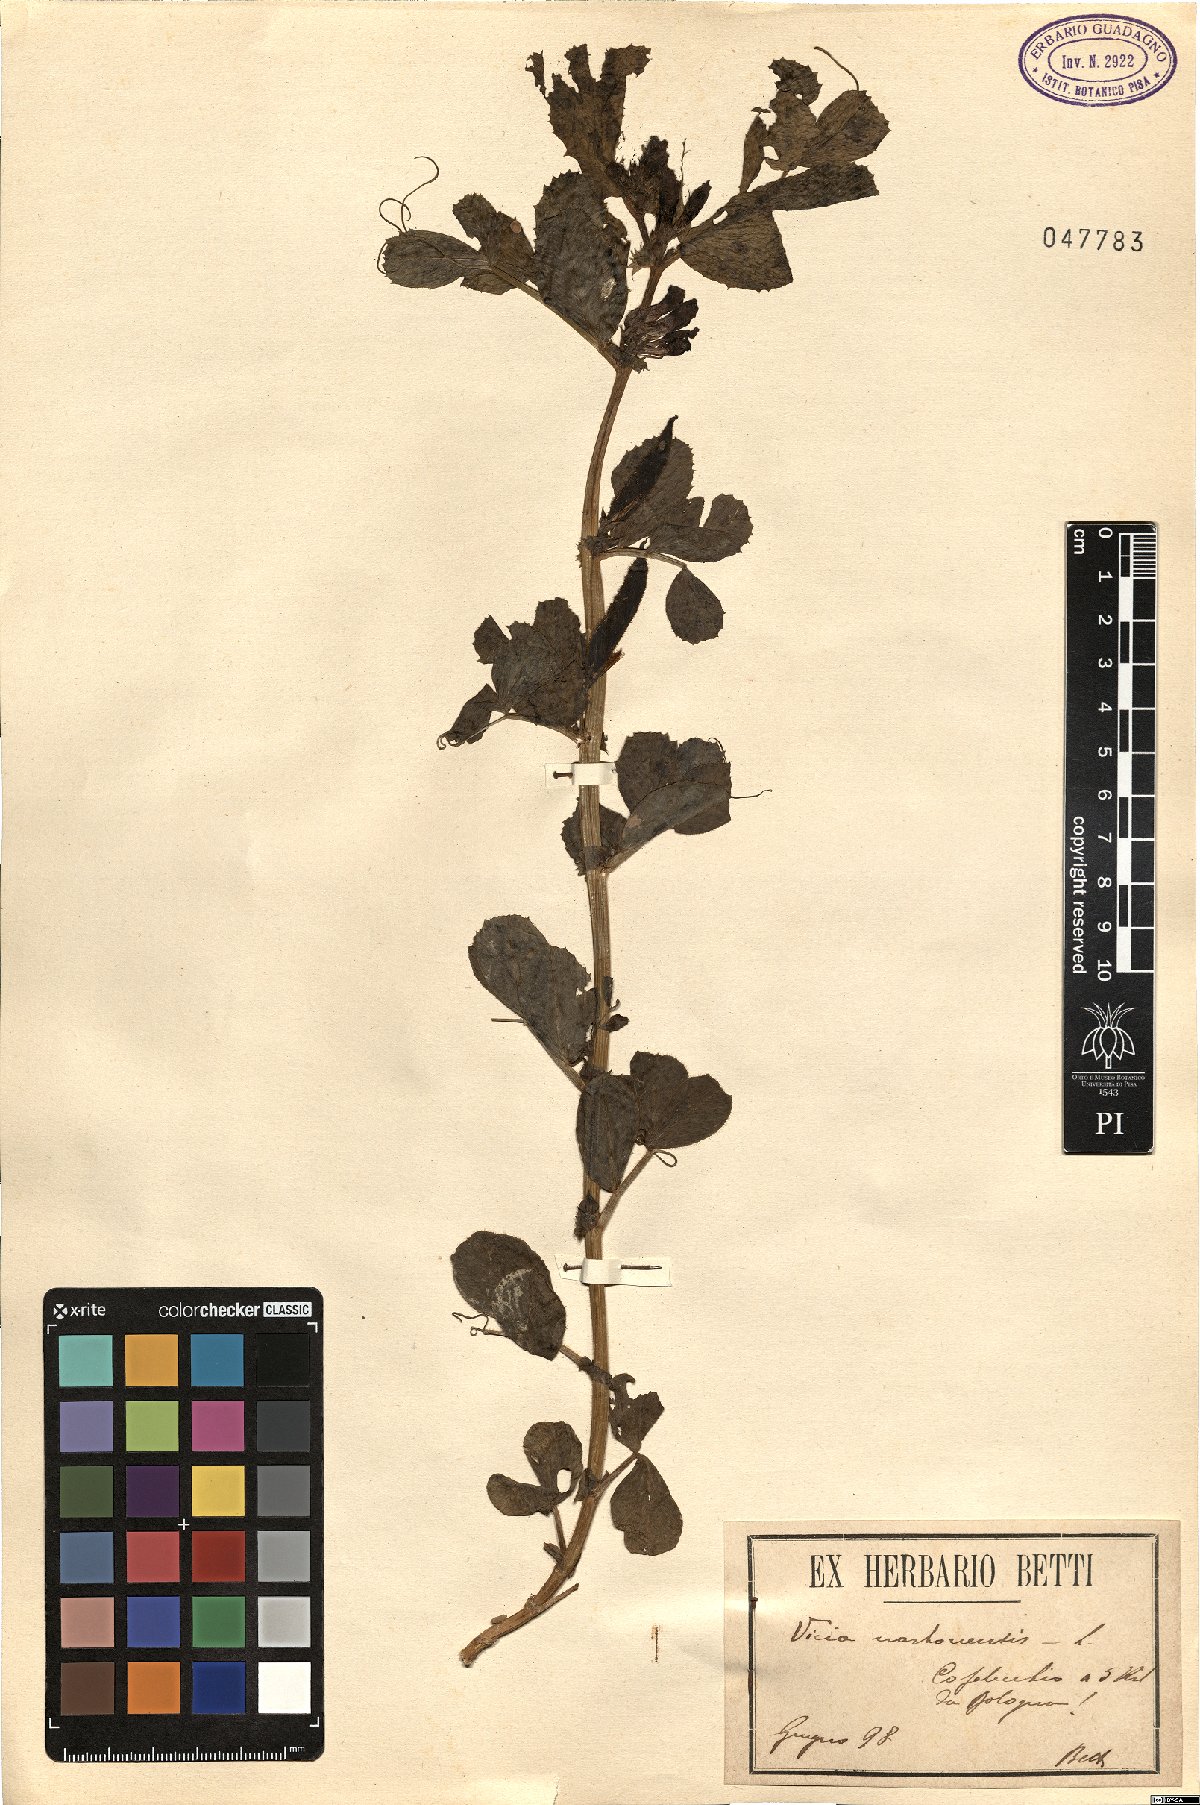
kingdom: Plantae
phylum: Tracheophyta
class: Magnoliopsida
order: Fabales
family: Fabaceae
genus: Vicia
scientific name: Vicia narbonensis
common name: Narbonne vetch
